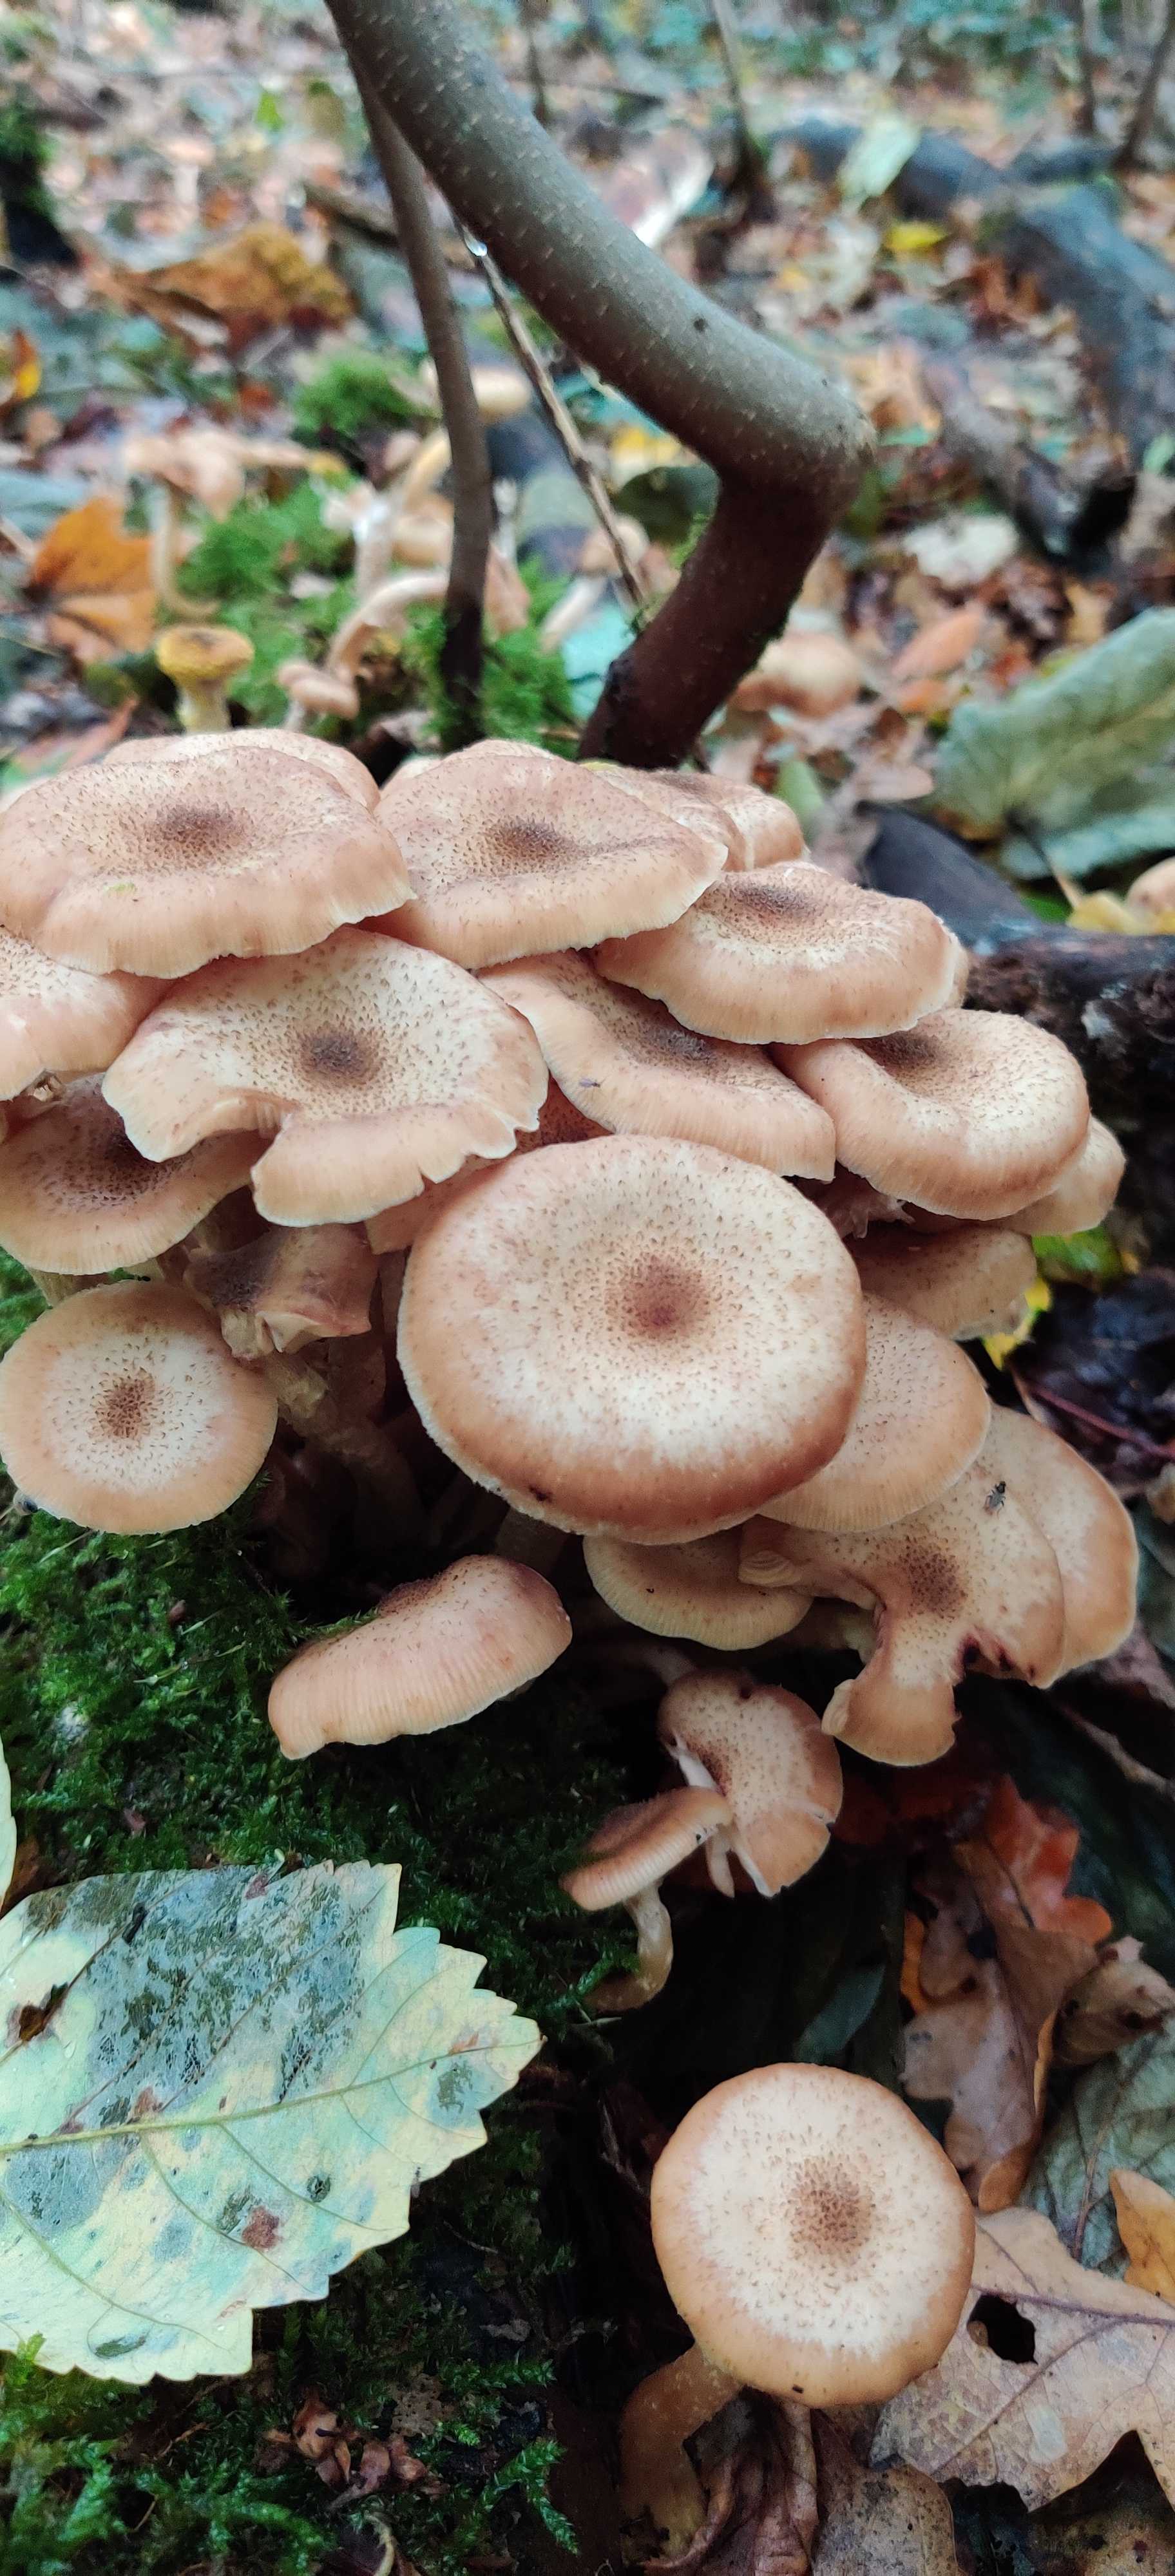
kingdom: Fungi
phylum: Basidiomycota
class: Agaricomycetes
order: Agaricales
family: Physalacriaceae
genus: Armillaria
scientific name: Armillaria lutea
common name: køllestokket honningsvamp
